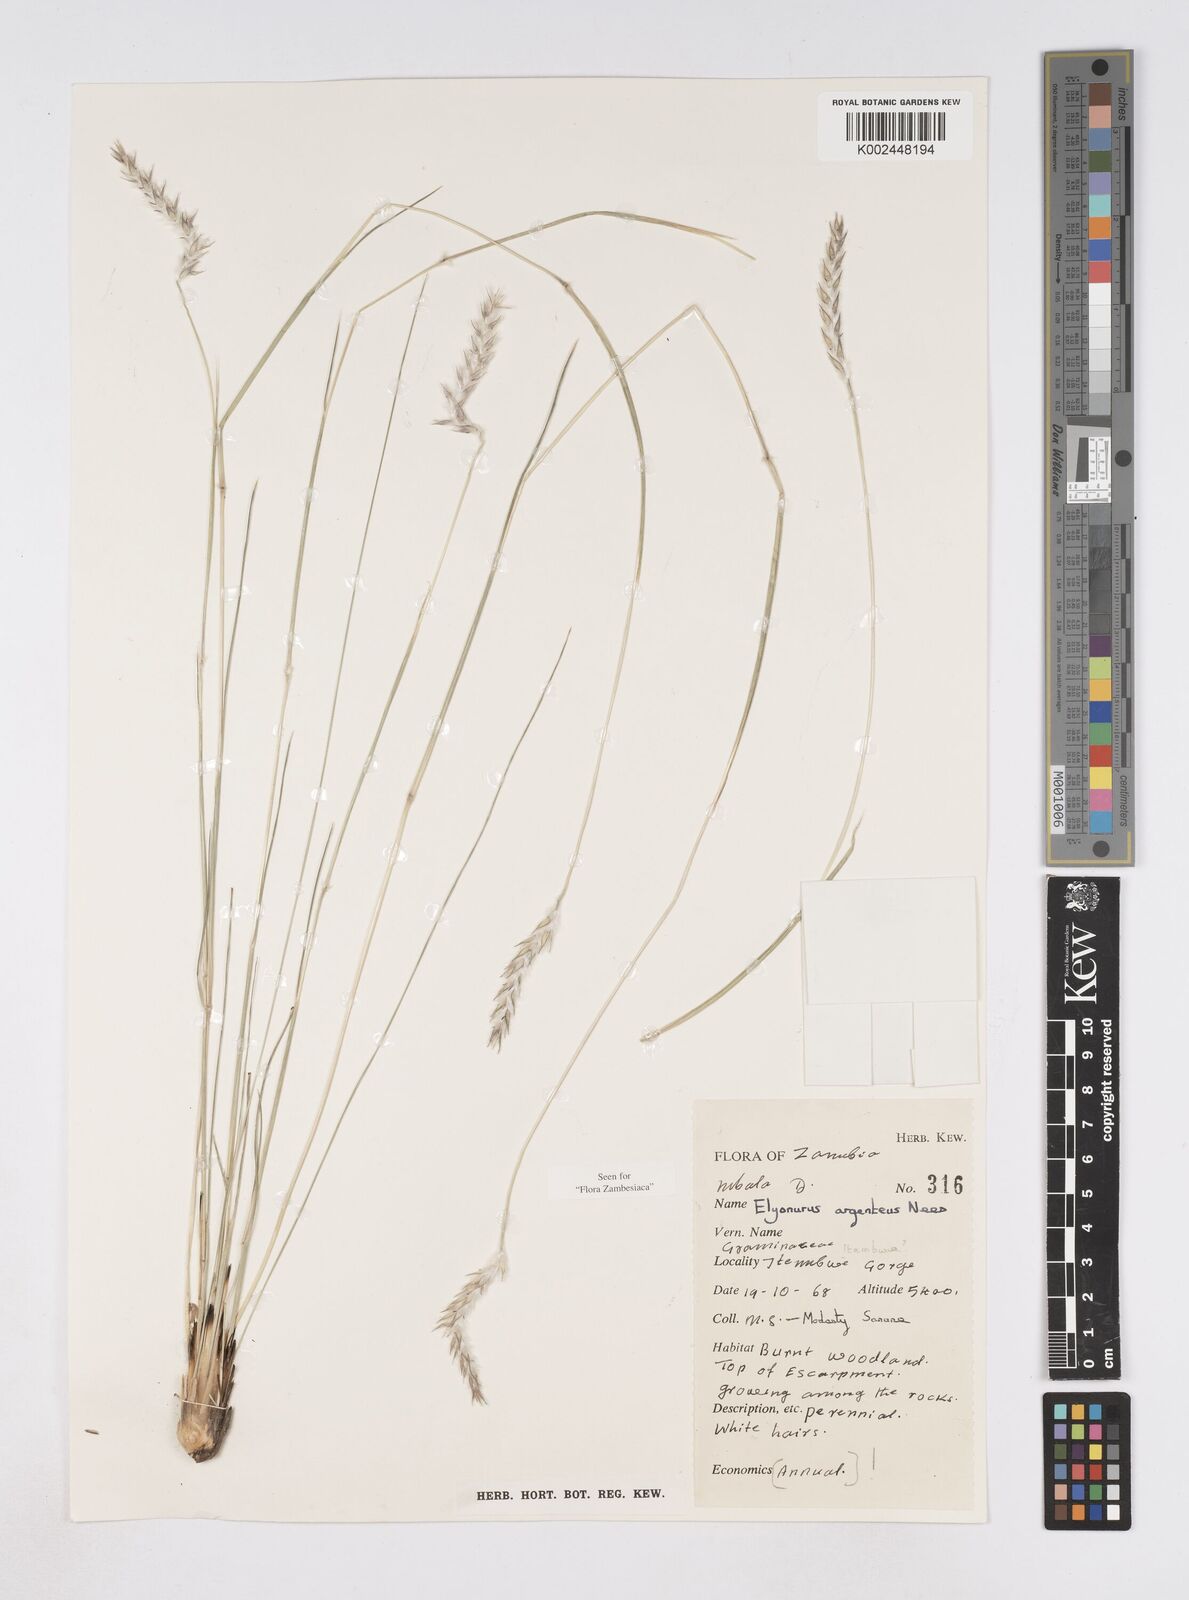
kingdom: Plantae
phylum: Tracheophyta
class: Liliopsida
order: Poales
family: Poaceae
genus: Elionurus
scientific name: Elionurus muticus
